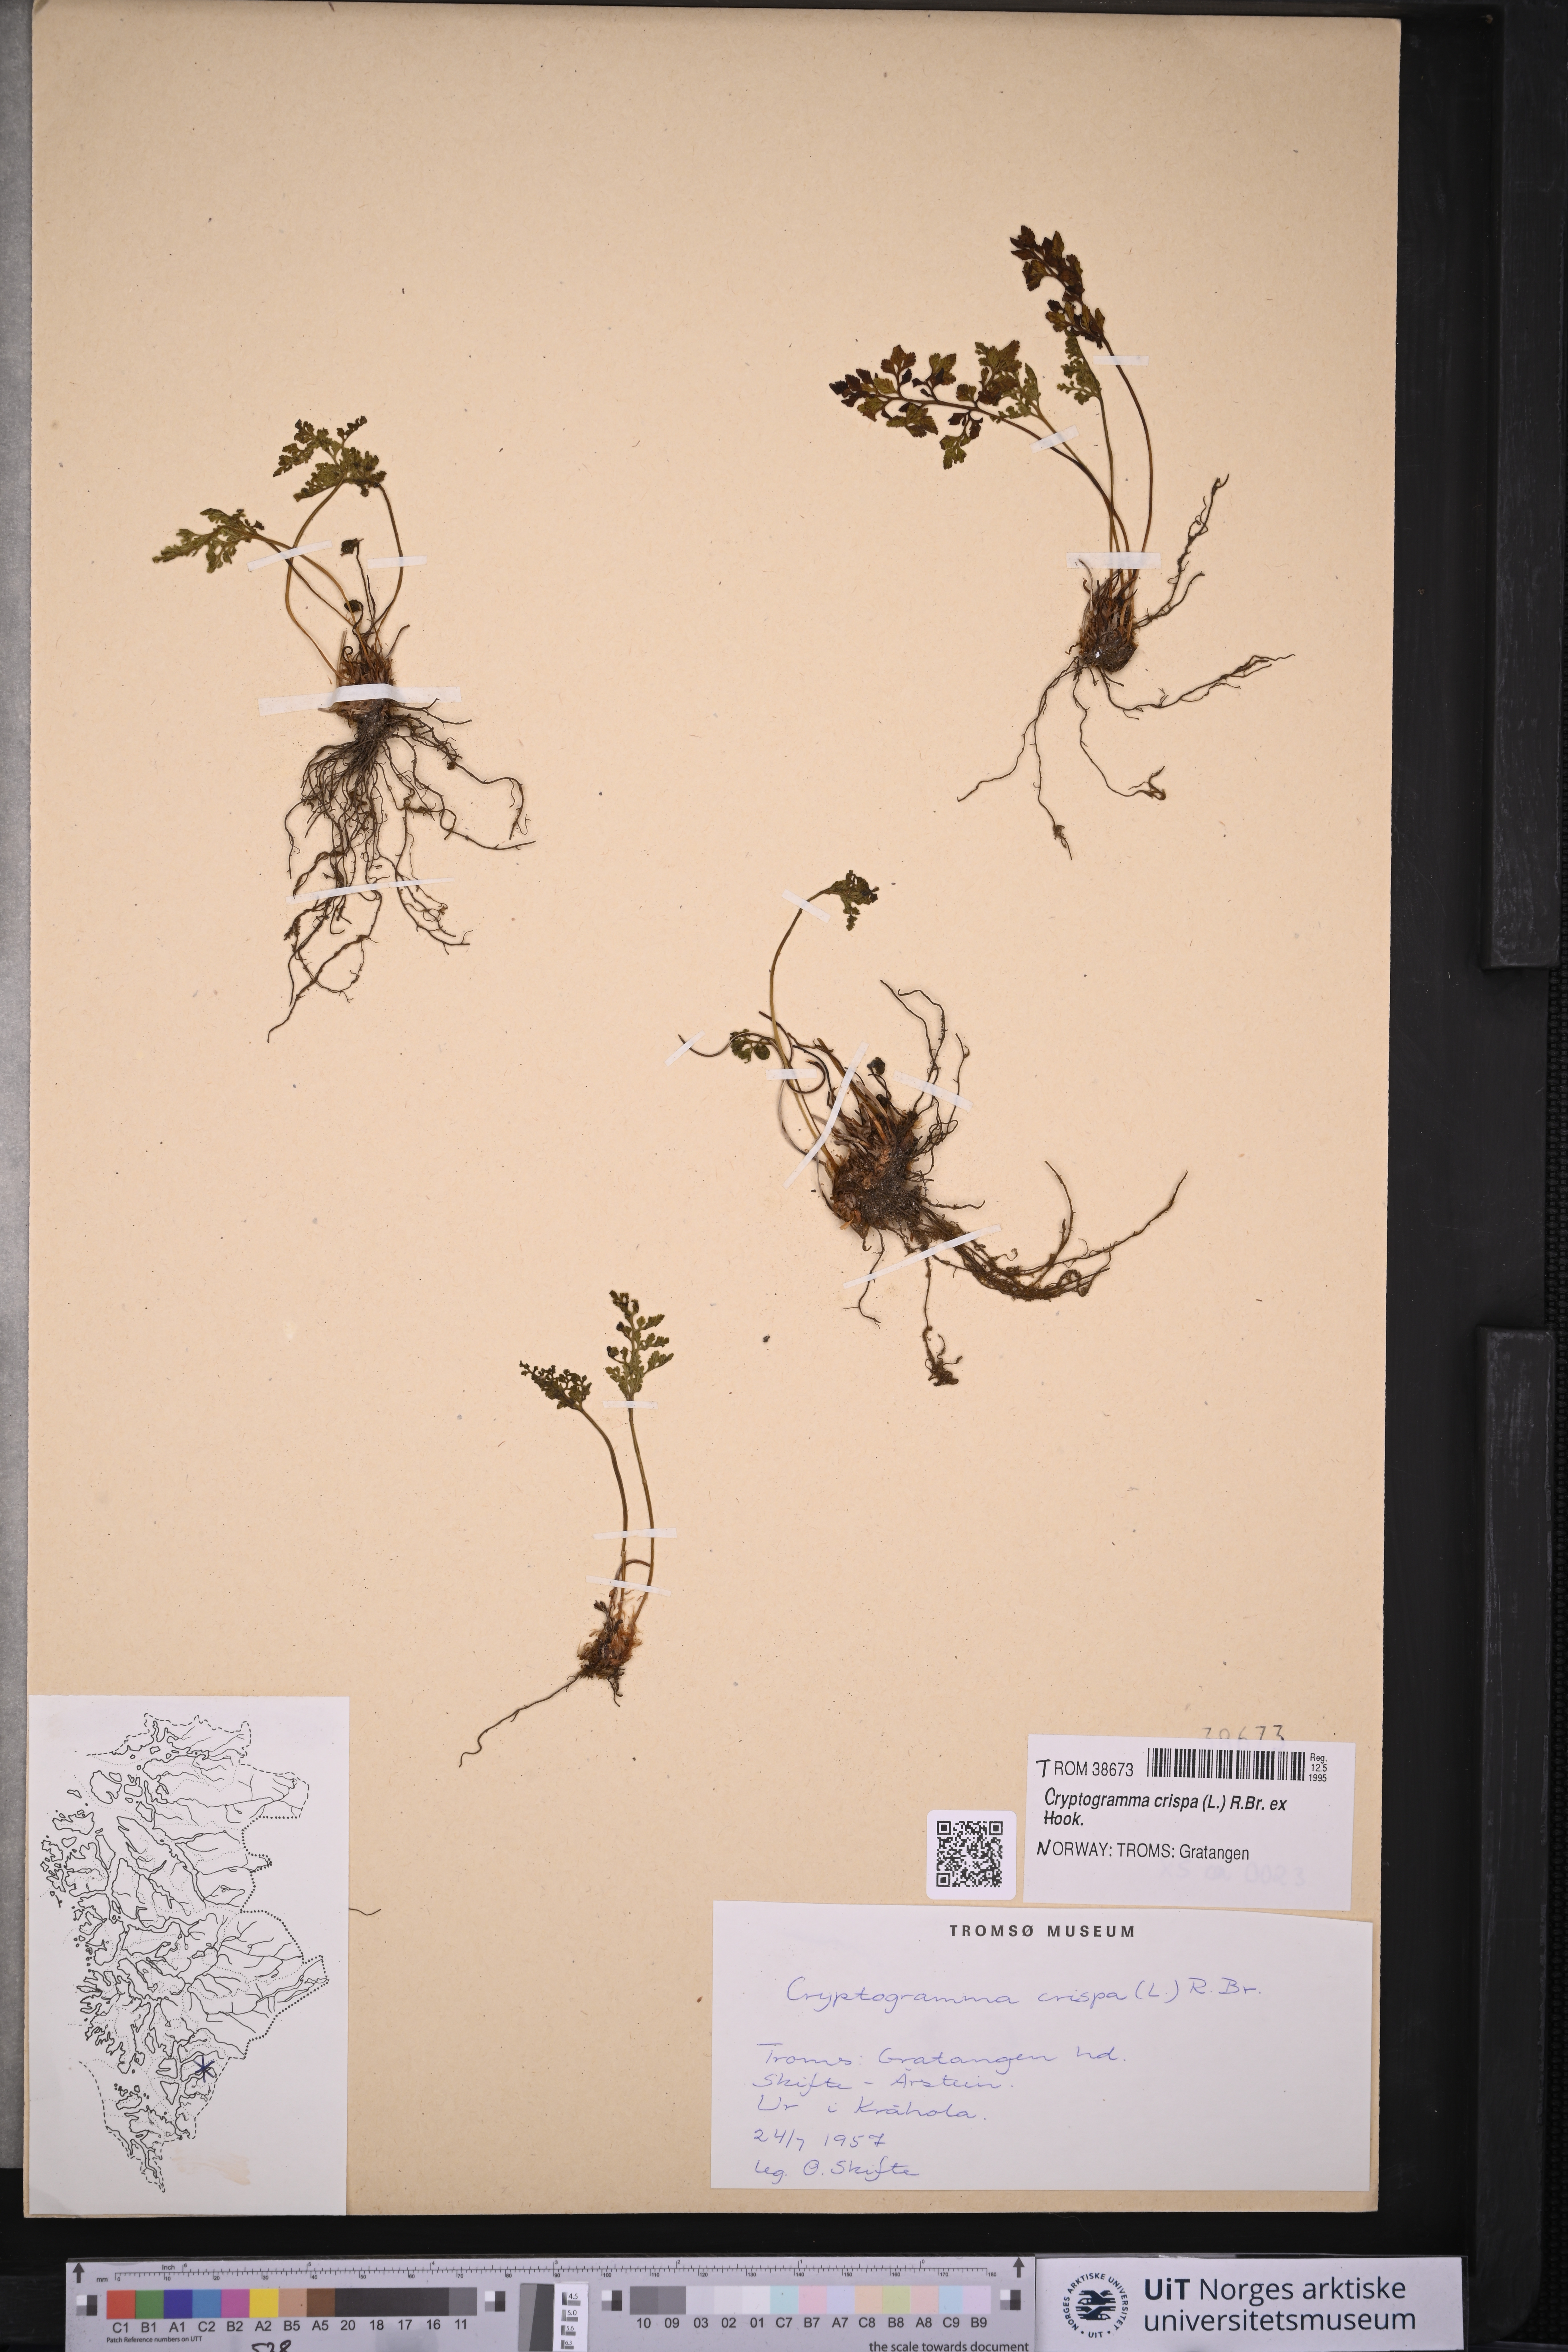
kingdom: Plantae
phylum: Tracheophyta
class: Polypodiopsida
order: Polypodiales
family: Pteridaceae
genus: Cryptogramma
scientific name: Cryptogramma crispa
